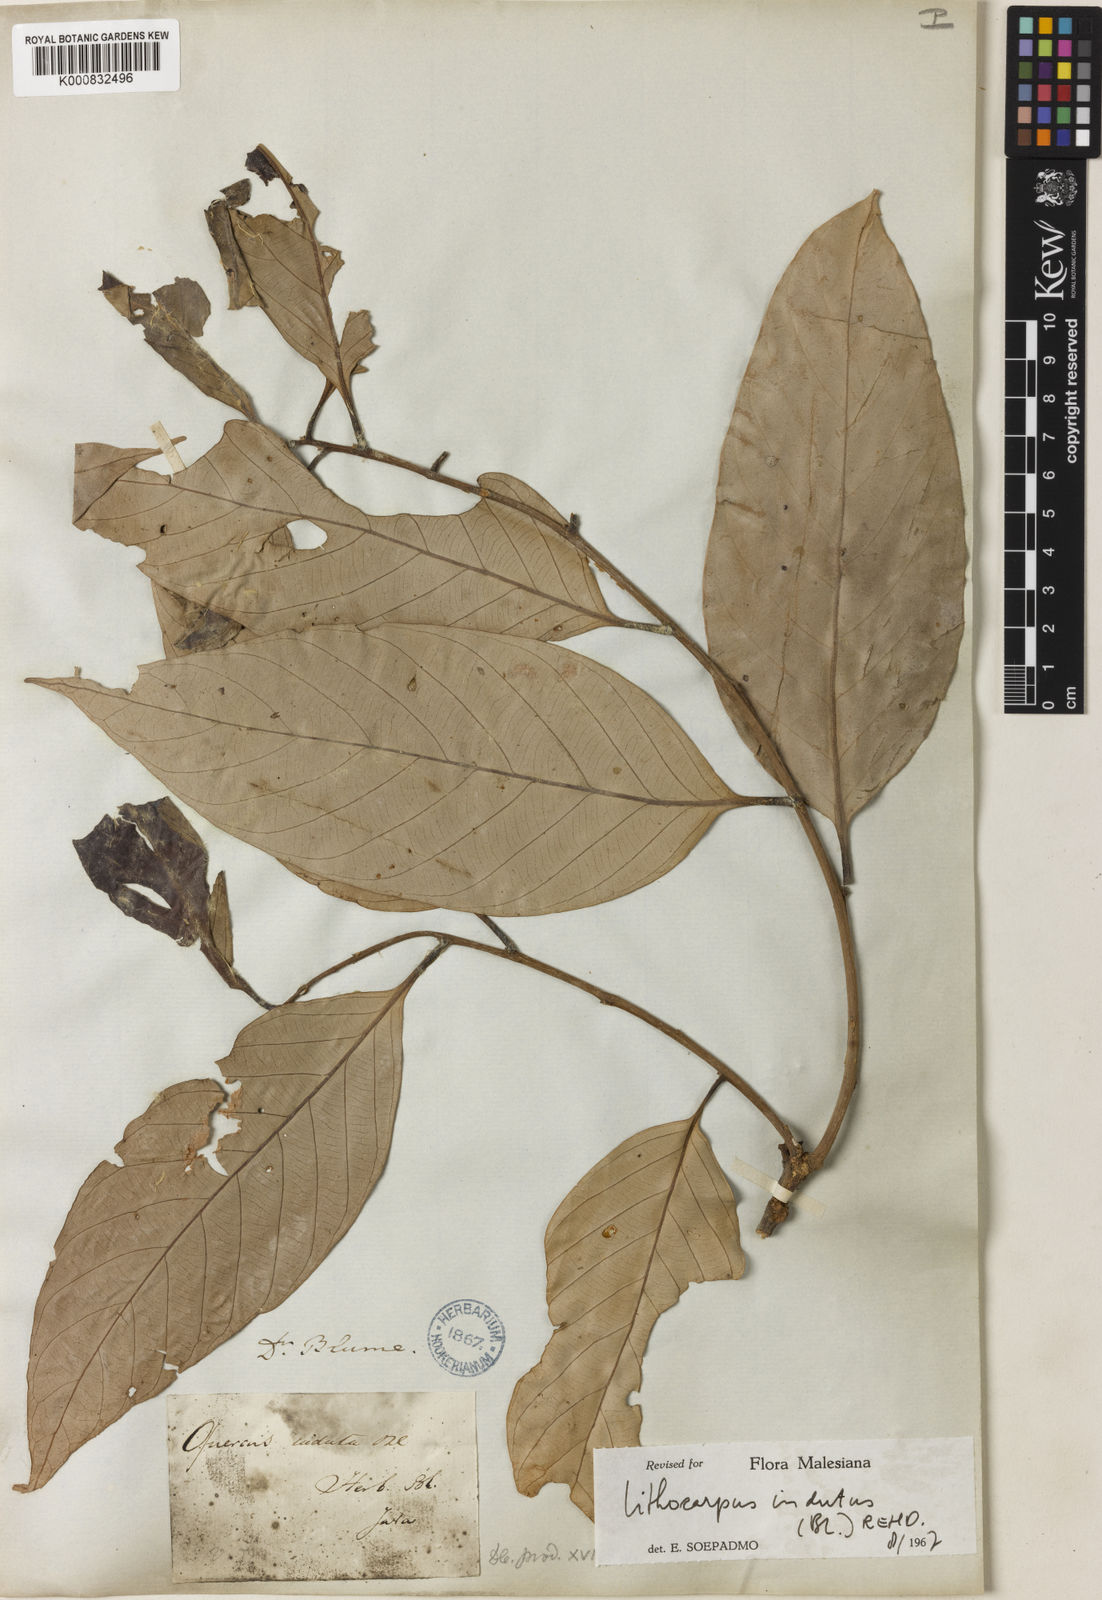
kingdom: Plantae
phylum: Tracheophyta
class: Magnoliopsida
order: Fagales
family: Fagaceae
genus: Lithocarpus
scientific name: Lithocarpus indutus
